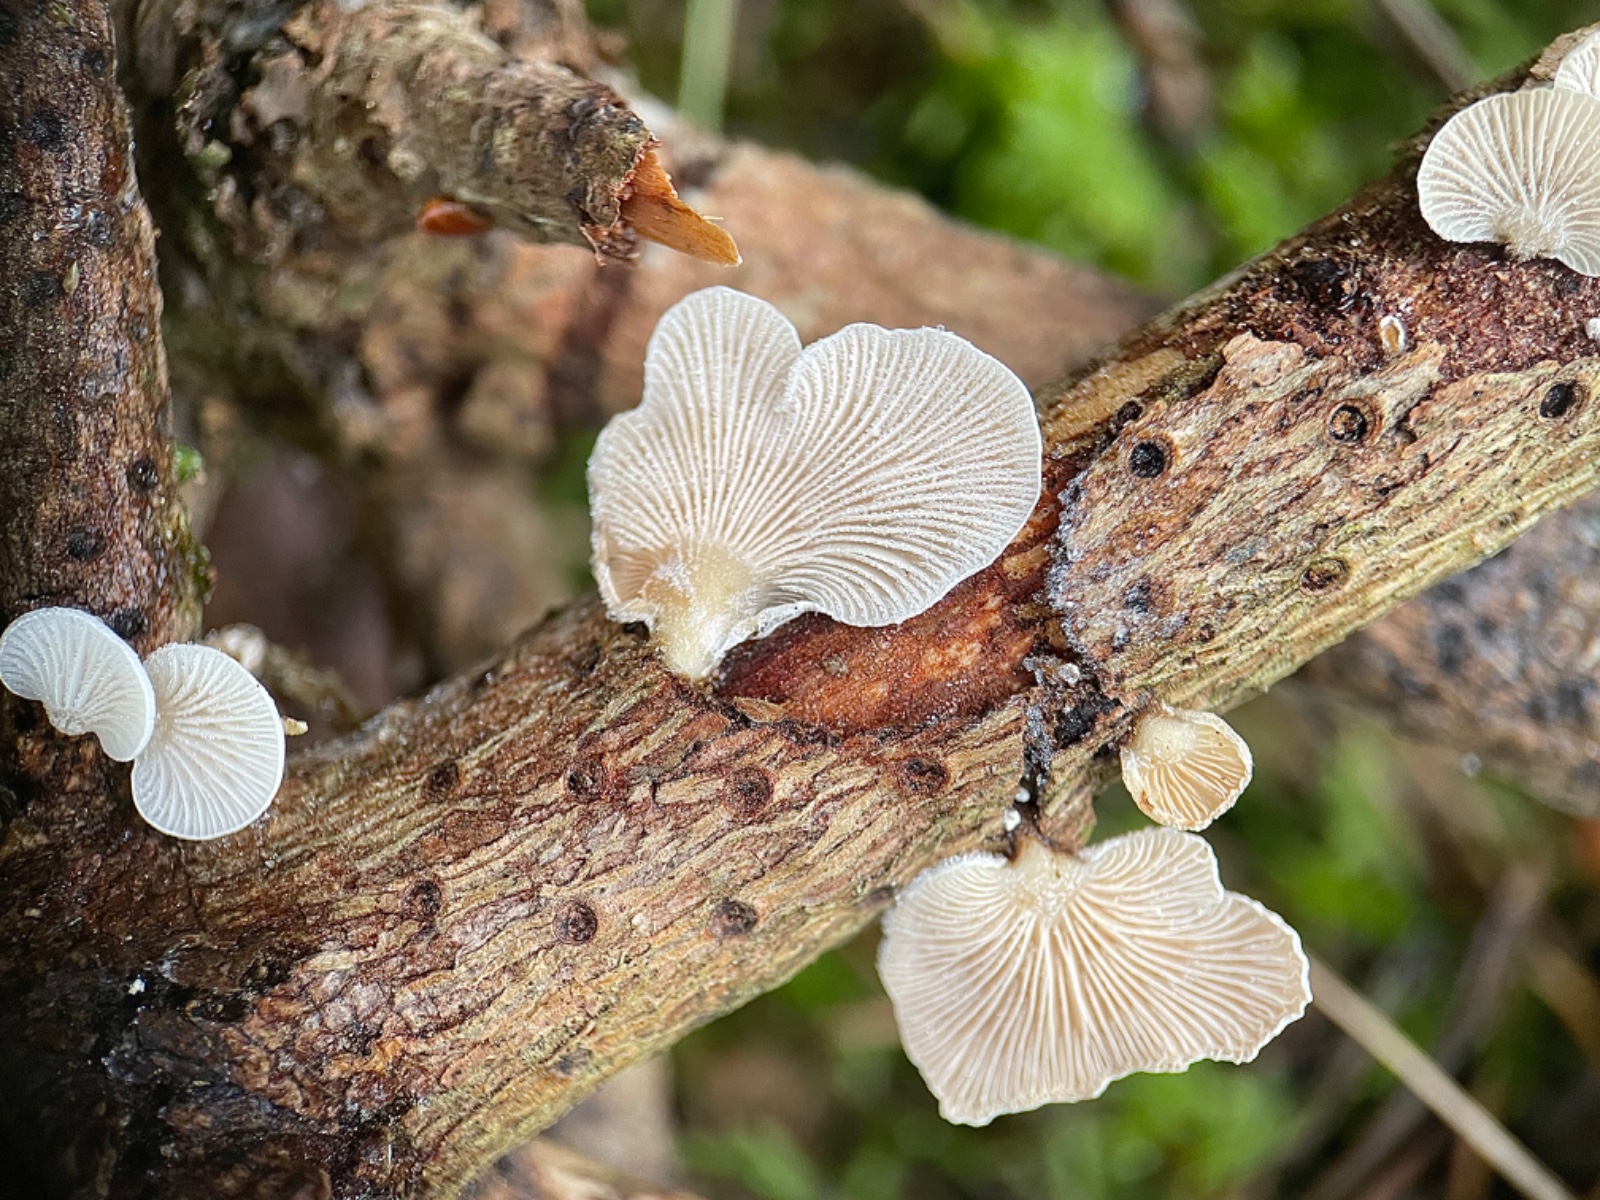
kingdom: Fungi
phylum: Basidiomycota
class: Agaricomycetes
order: Agaricales
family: Mycenaceae
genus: Panellus
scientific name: Panellus mitis
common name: mild epaulethat
